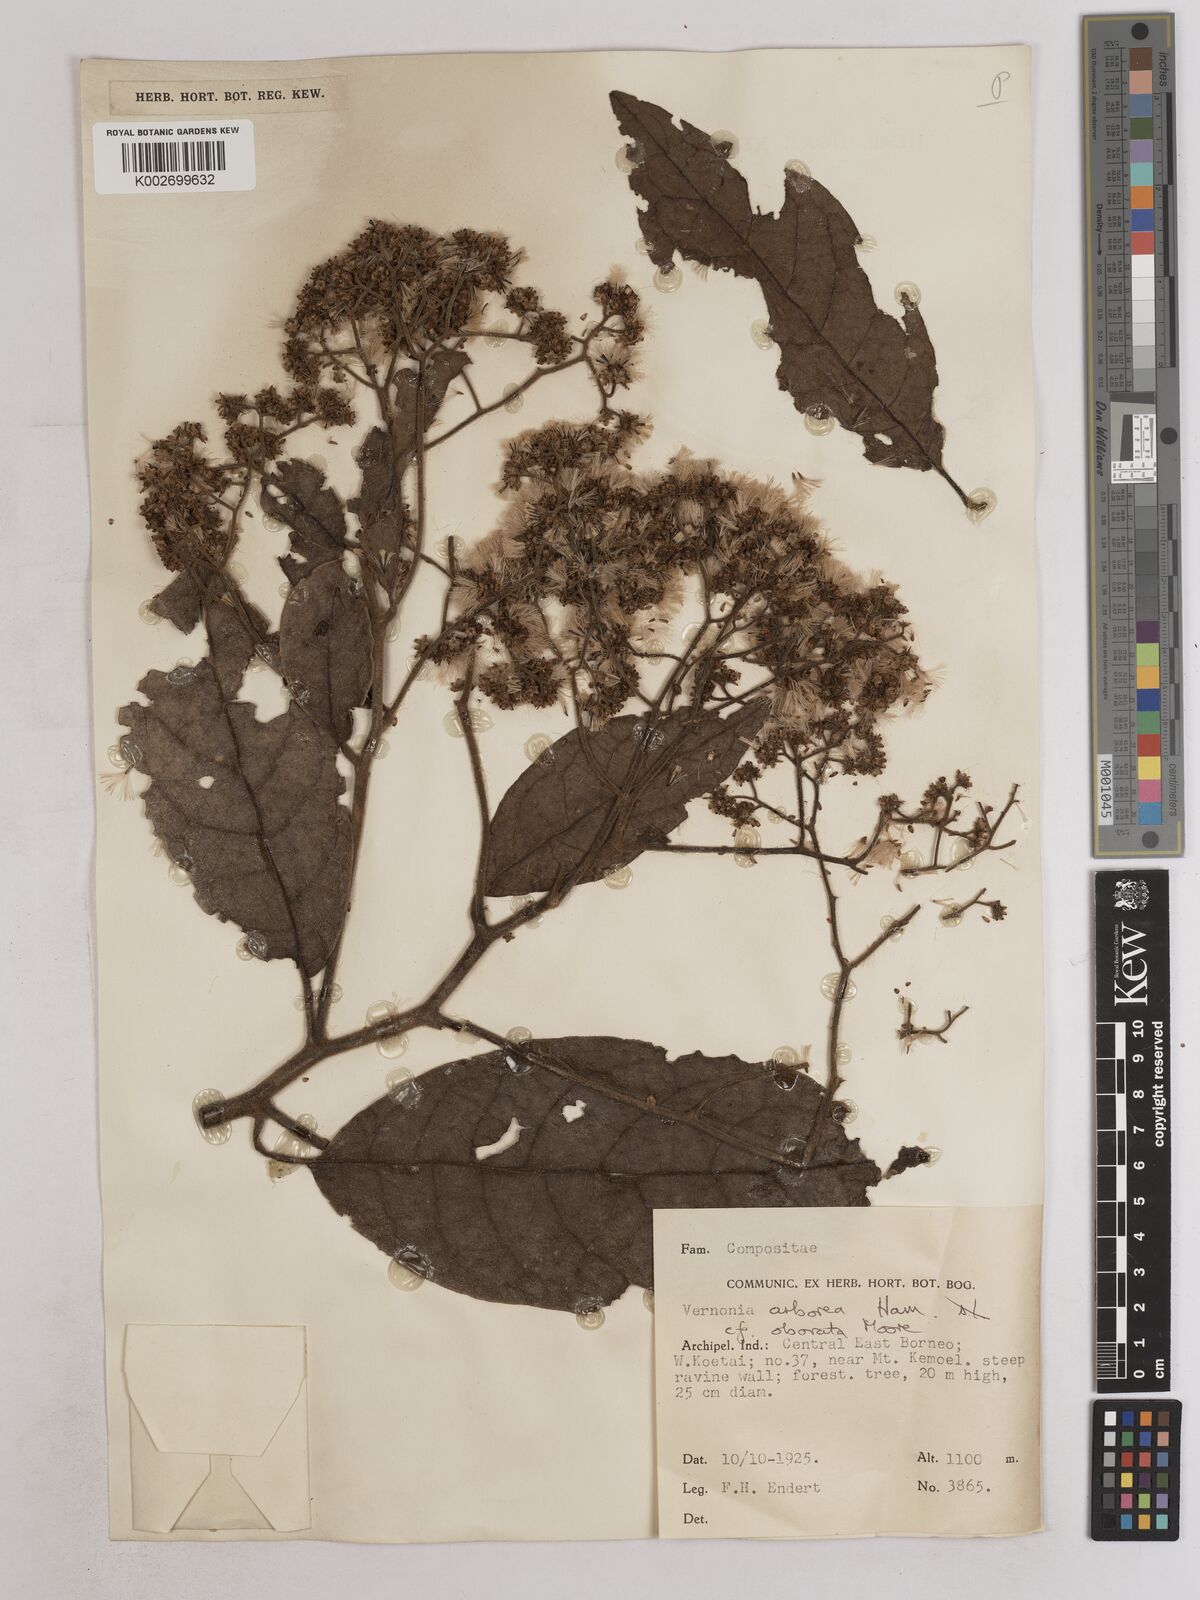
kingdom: Plantae
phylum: Tracheophyta
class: Magnoliopsida
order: Asterales
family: Asteraceae
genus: Strobocalyx
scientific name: Strobocalyx arborea
